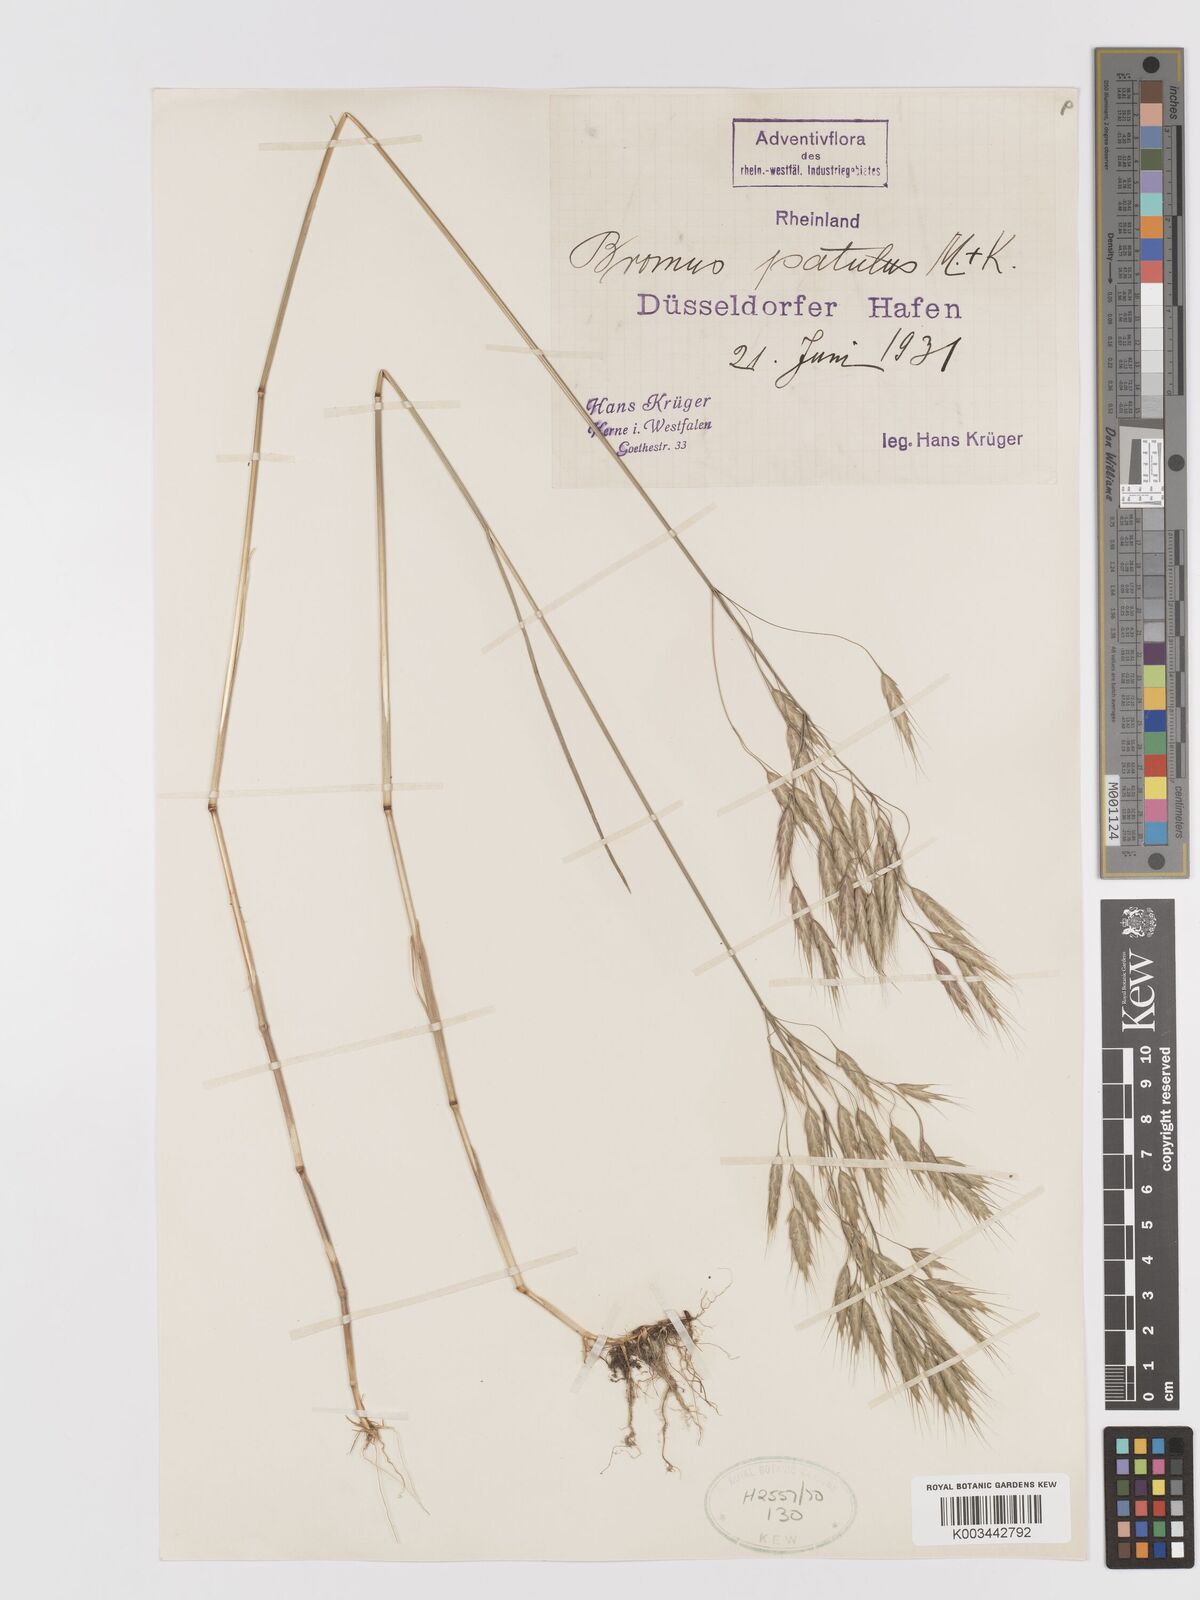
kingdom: Plantae
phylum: Tracheophyta
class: Liliopsida
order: Poales
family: Poaceae
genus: Bromus
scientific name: Bromus japonicus
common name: Japanese brome
